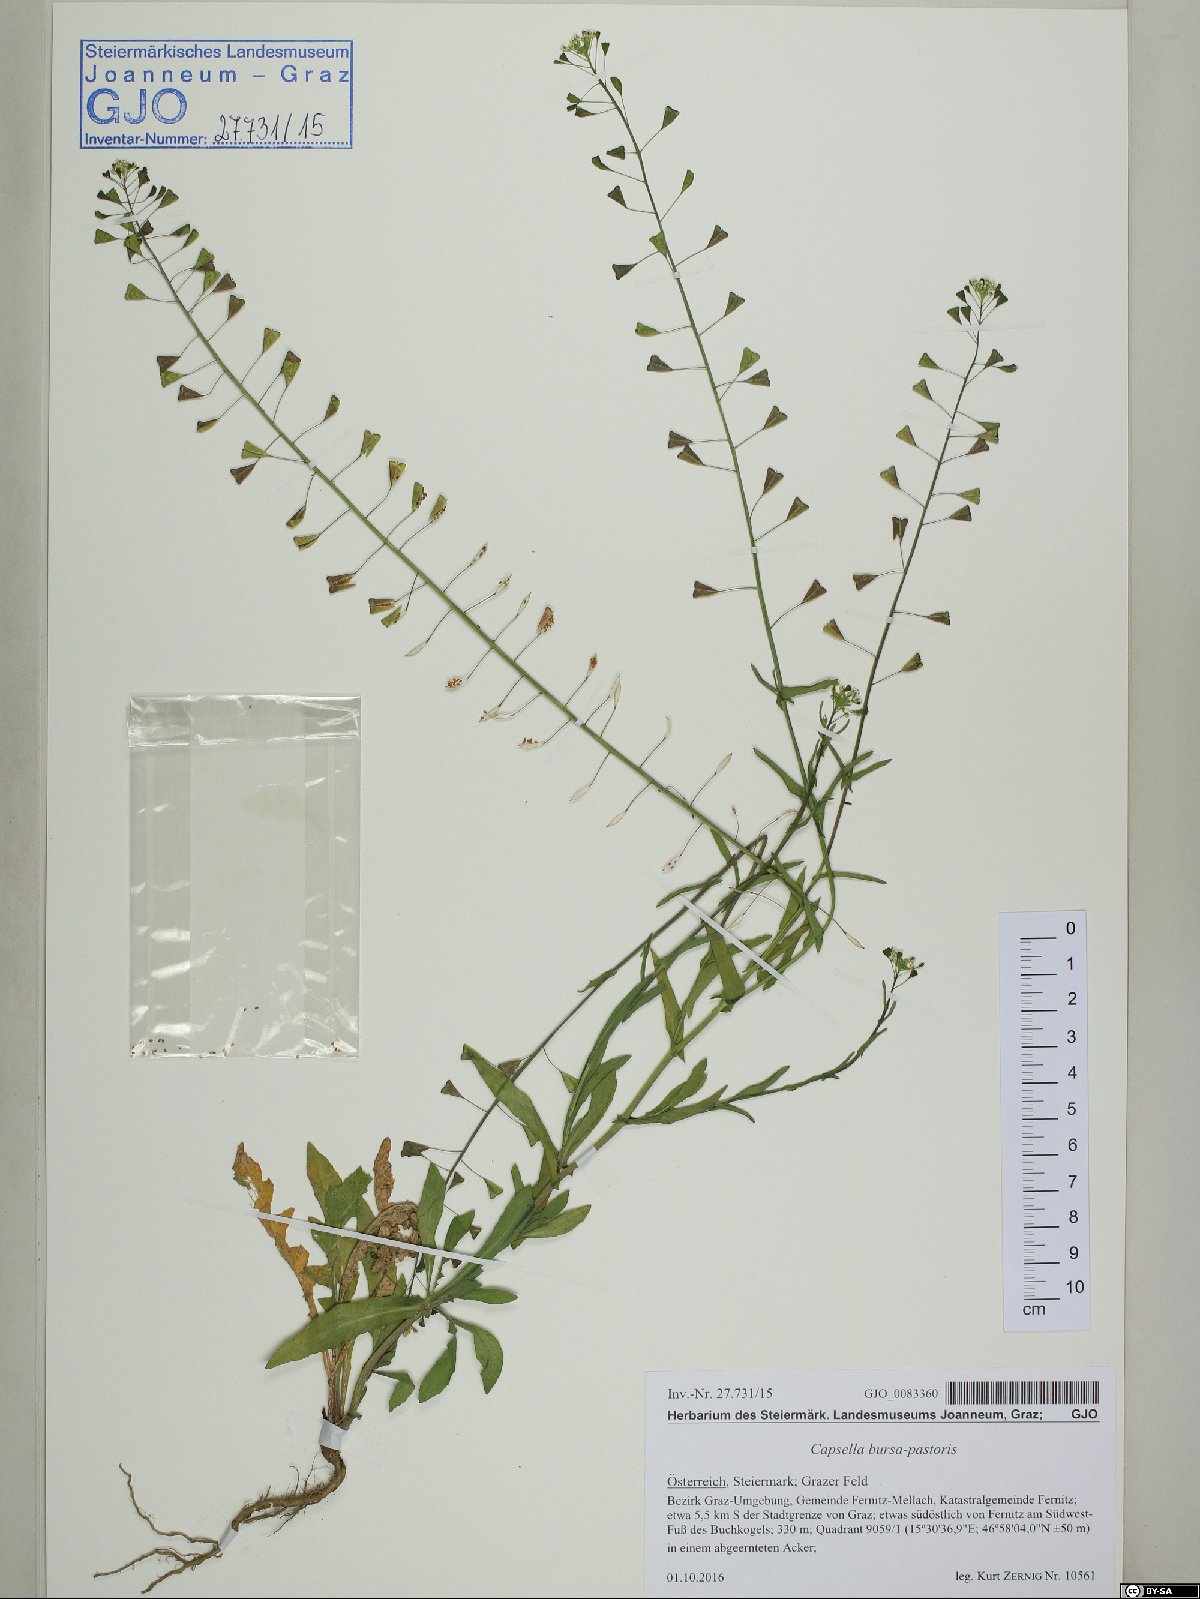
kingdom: Plantae
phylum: Tracheophyta
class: Magnoliopsida
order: Brassicales
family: Brassicaceae
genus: Capsella
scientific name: Capsella bursa-pastoris
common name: Shepherd's purse
